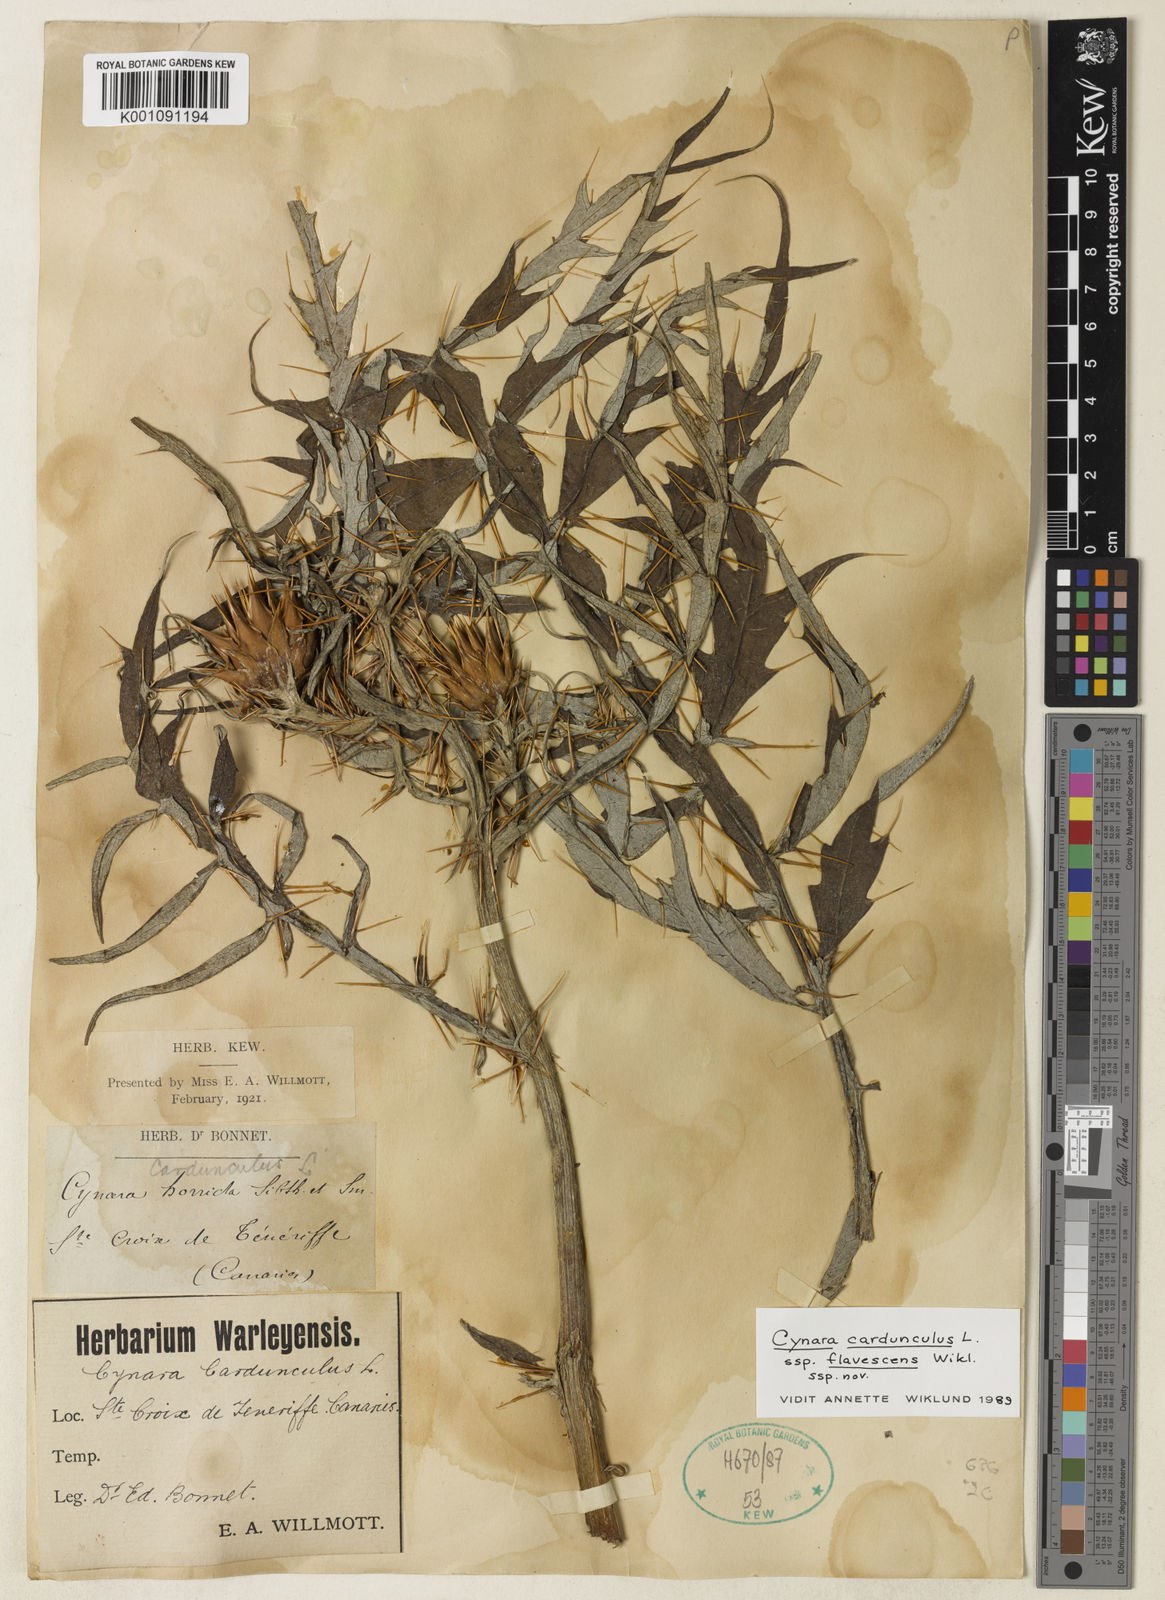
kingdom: Plantae
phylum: Tracheophyta
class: Magnoliopsida
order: Asterales
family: Asteraceae
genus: Cynara
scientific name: Cynara cardunculus
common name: Globe artichoke
